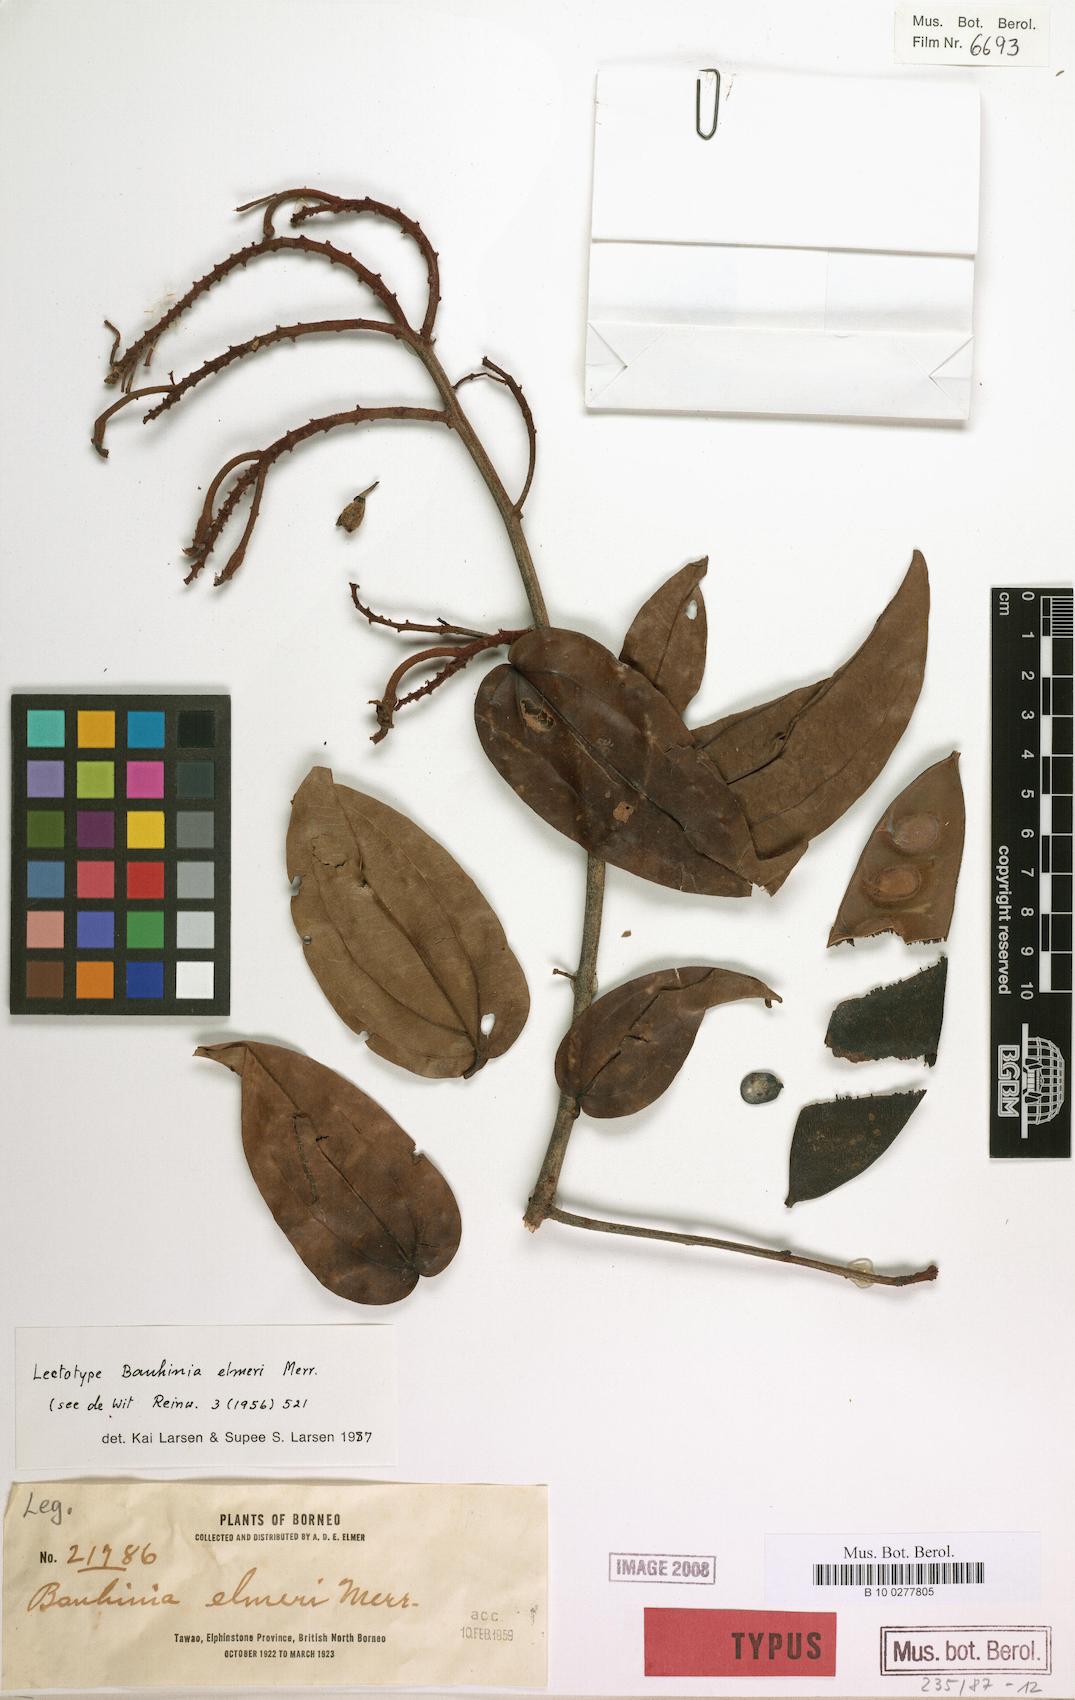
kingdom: Plantae
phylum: Tracheophyta
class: Magnoliopsida
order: Fabales
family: Fabaceae
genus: Phanera
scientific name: Phanera elmeri
